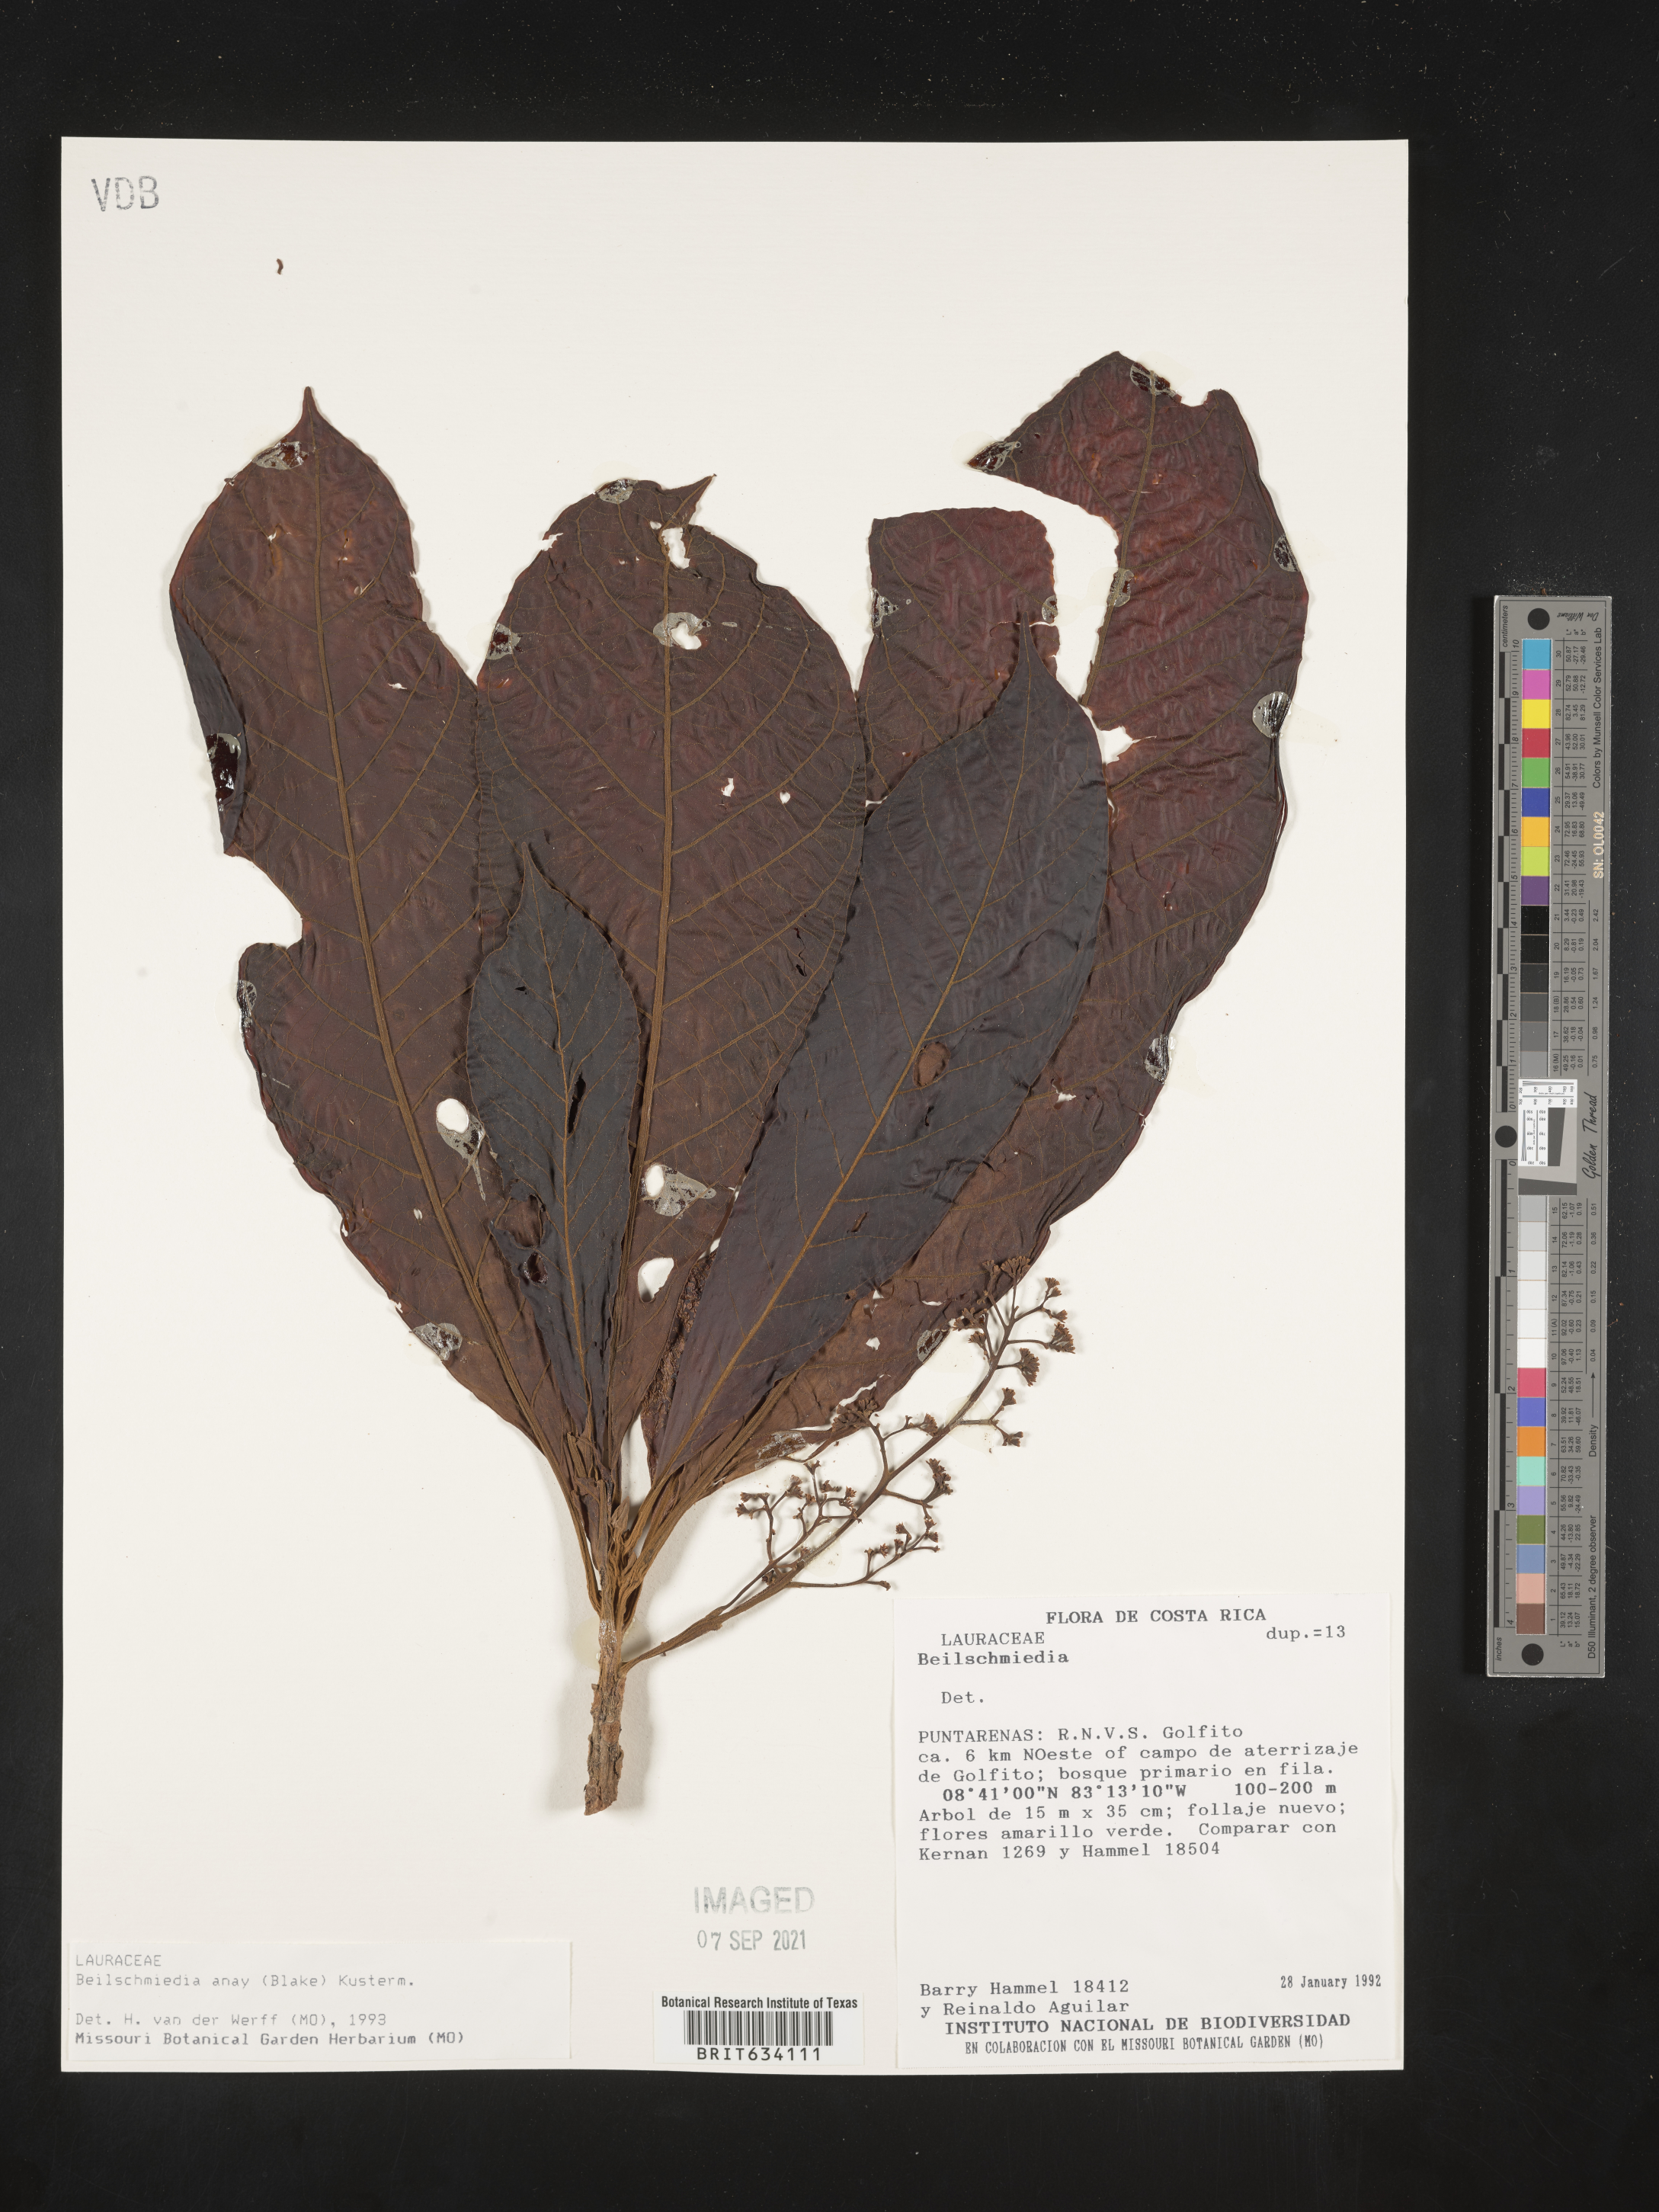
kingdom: Plantae
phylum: Tracheophyta
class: Magnoliopsida
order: Laurales
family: Lauraceae
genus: Beilschmiedia
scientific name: Beilschmiedia
